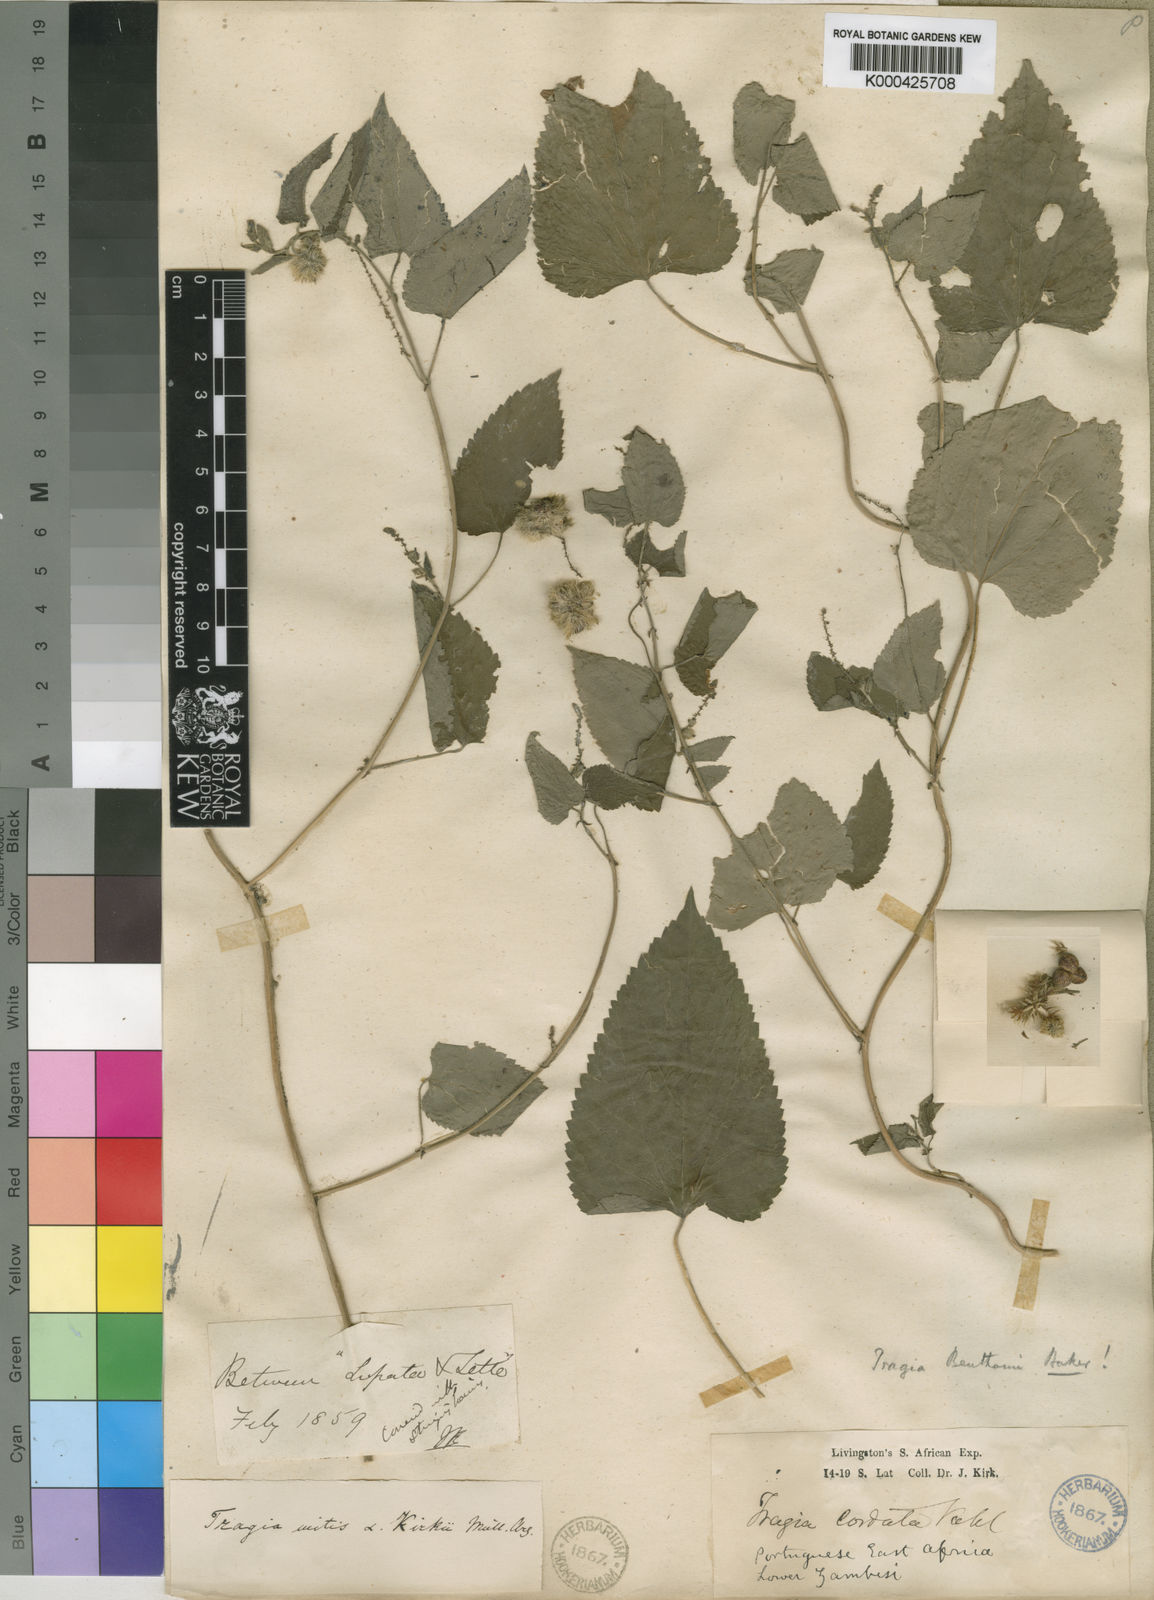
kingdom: Plantae
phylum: Tracheophyta
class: Magnoliopsida
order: Malpighiales
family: Euphorbiaceae
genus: Tragia
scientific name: Tragia benthamii
